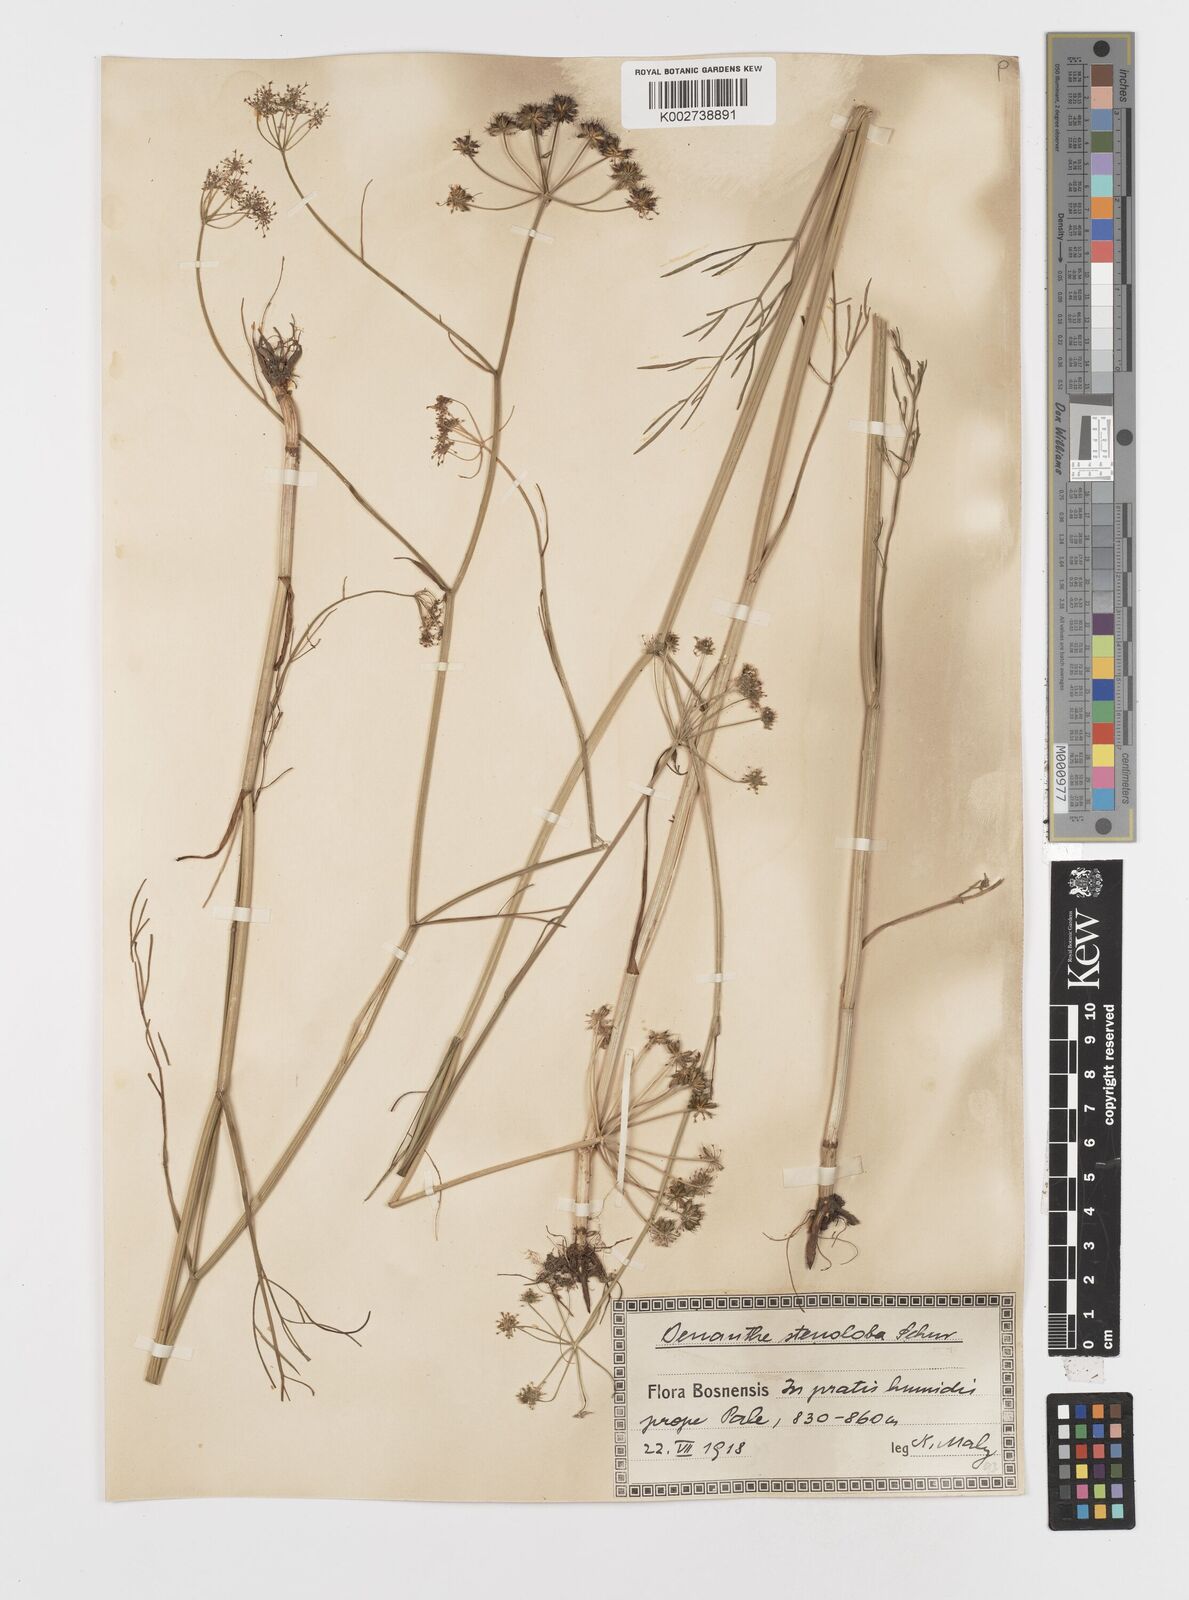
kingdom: Plantae
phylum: Tracheophyta
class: Magnoliopsida
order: Apiales
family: Apiaceae
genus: Oenanthe
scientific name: Oenanthe peucedanifolia
